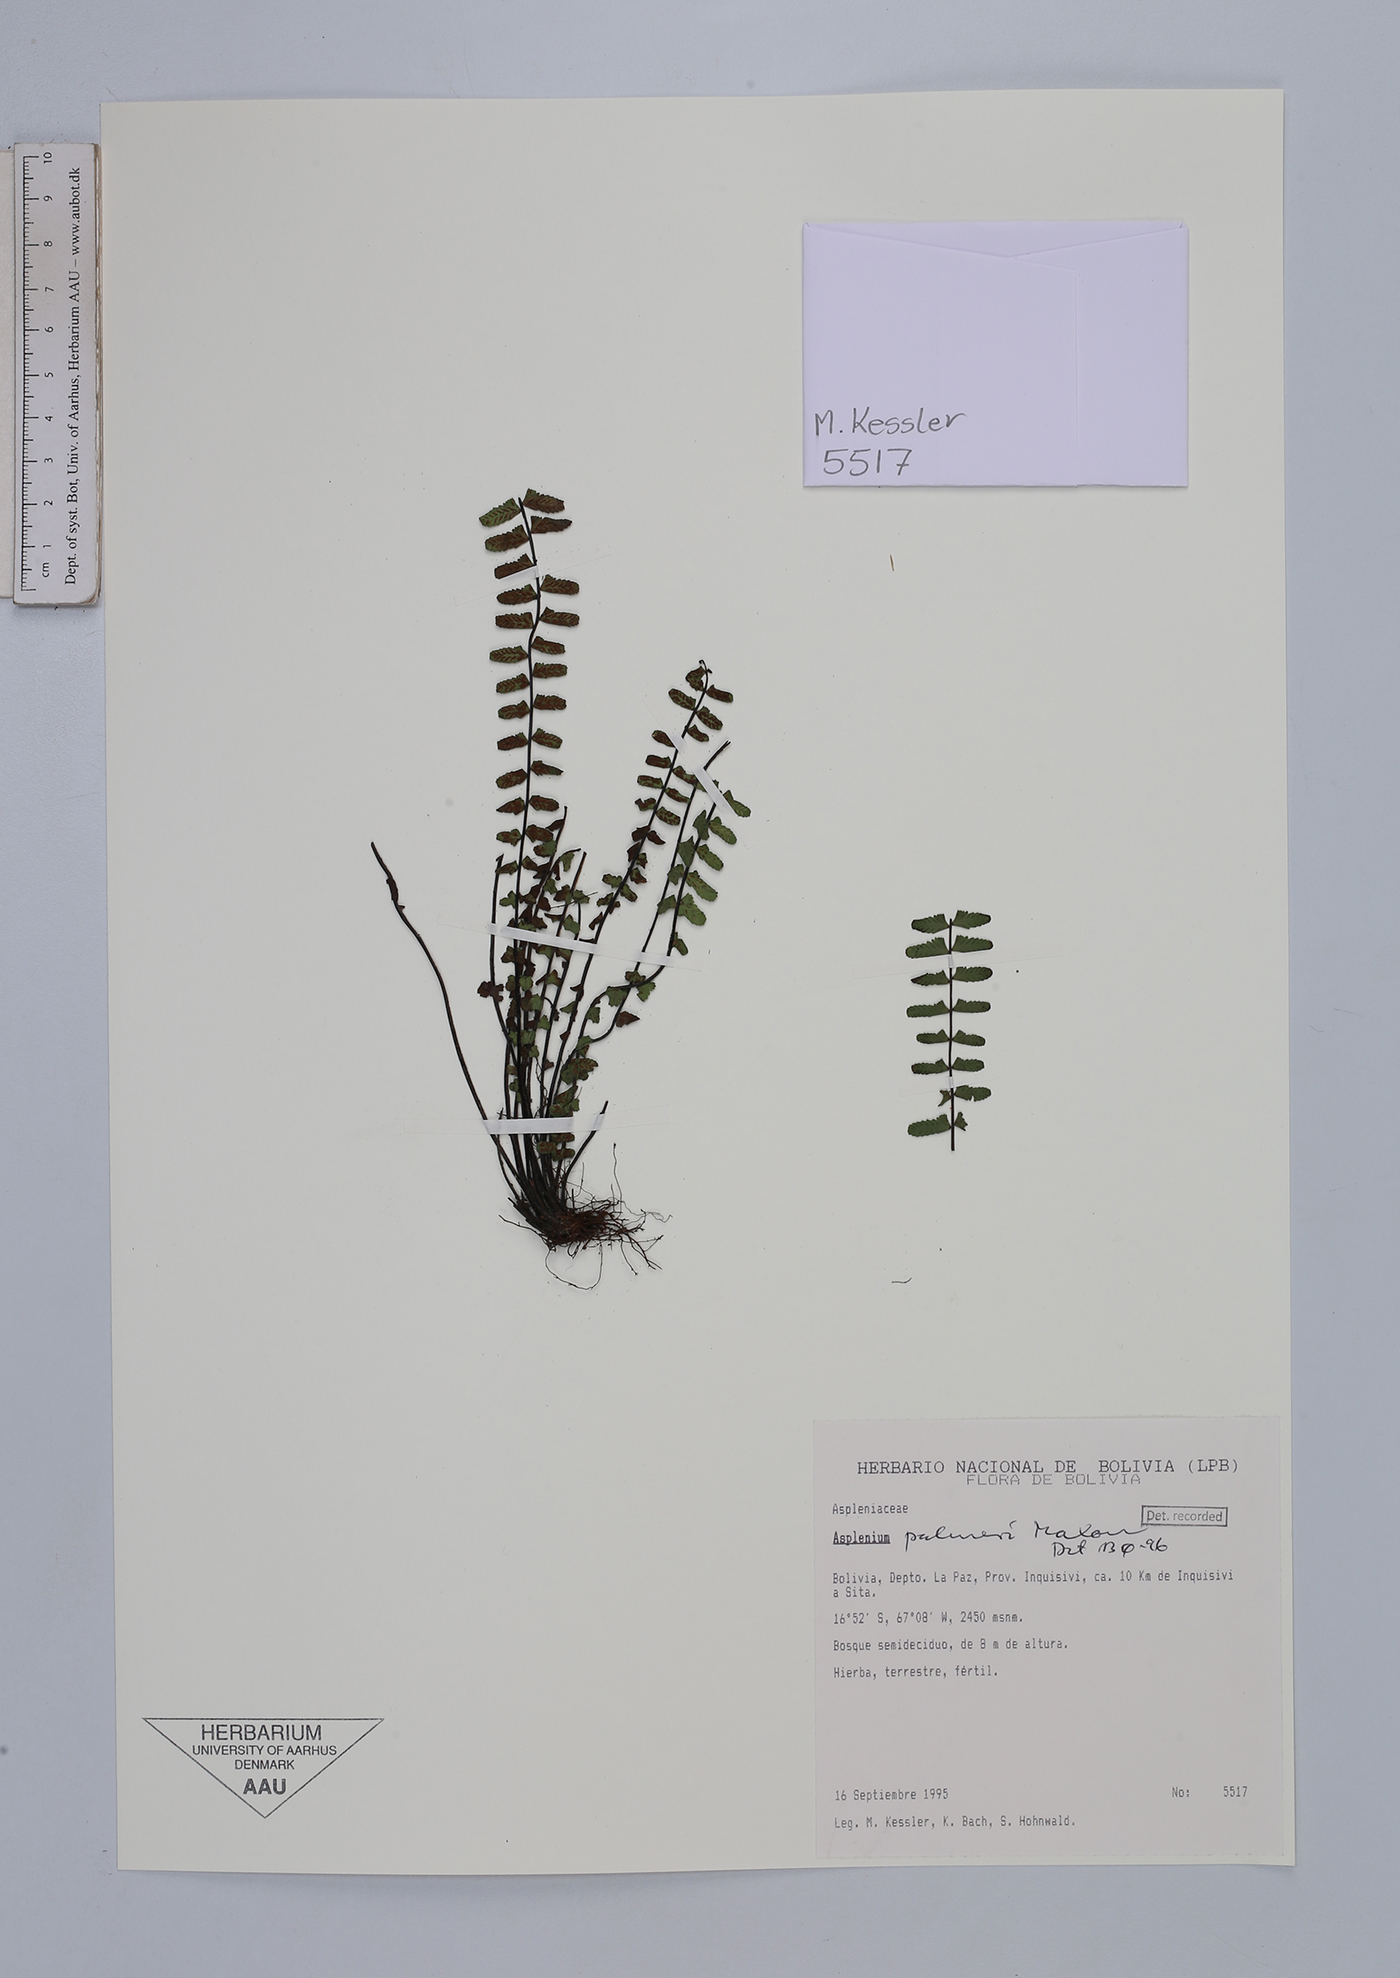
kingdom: Plantae
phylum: Tracheophyta
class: Polypodiopsida
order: Polypodiales
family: Aspleniaceae
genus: Asplenium
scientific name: Asplenium palmeri
